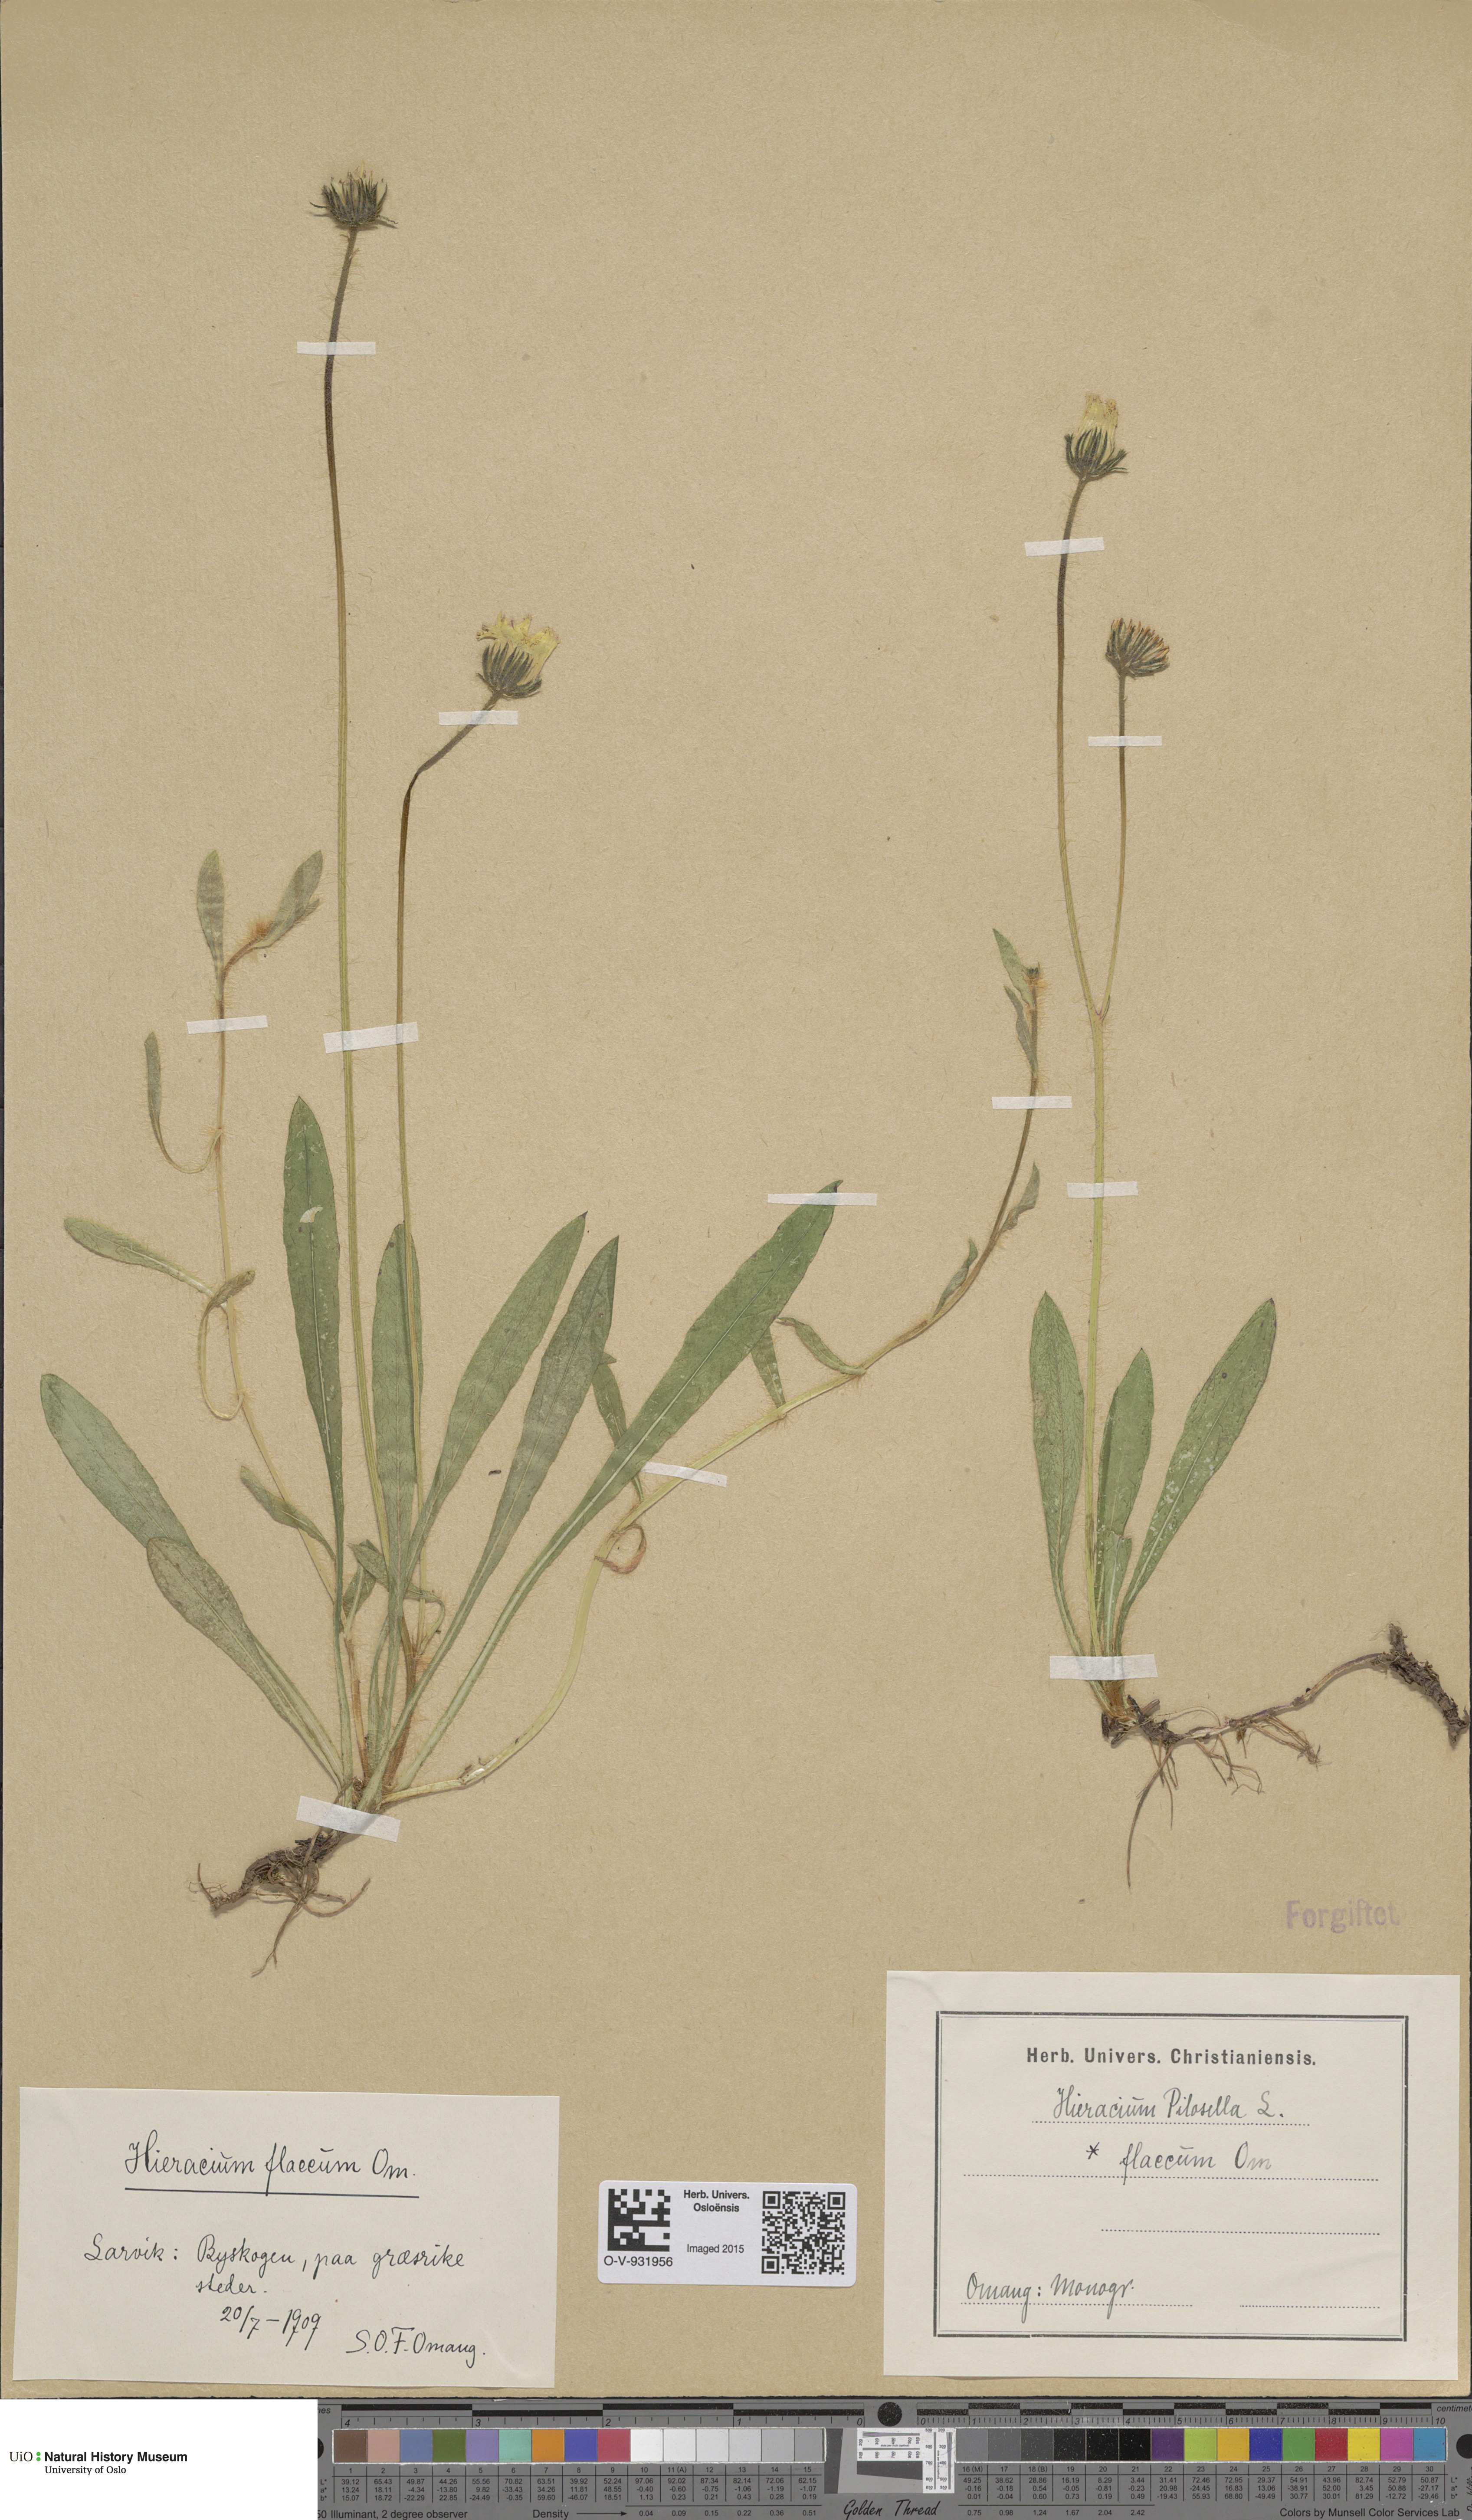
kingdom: Plantae
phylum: Tracheophyta
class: Magnoliopsida
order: Asterales
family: Asteraceae
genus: Pilosella
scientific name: Pilosella officinarum
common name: Mouse-ear hawkweed
